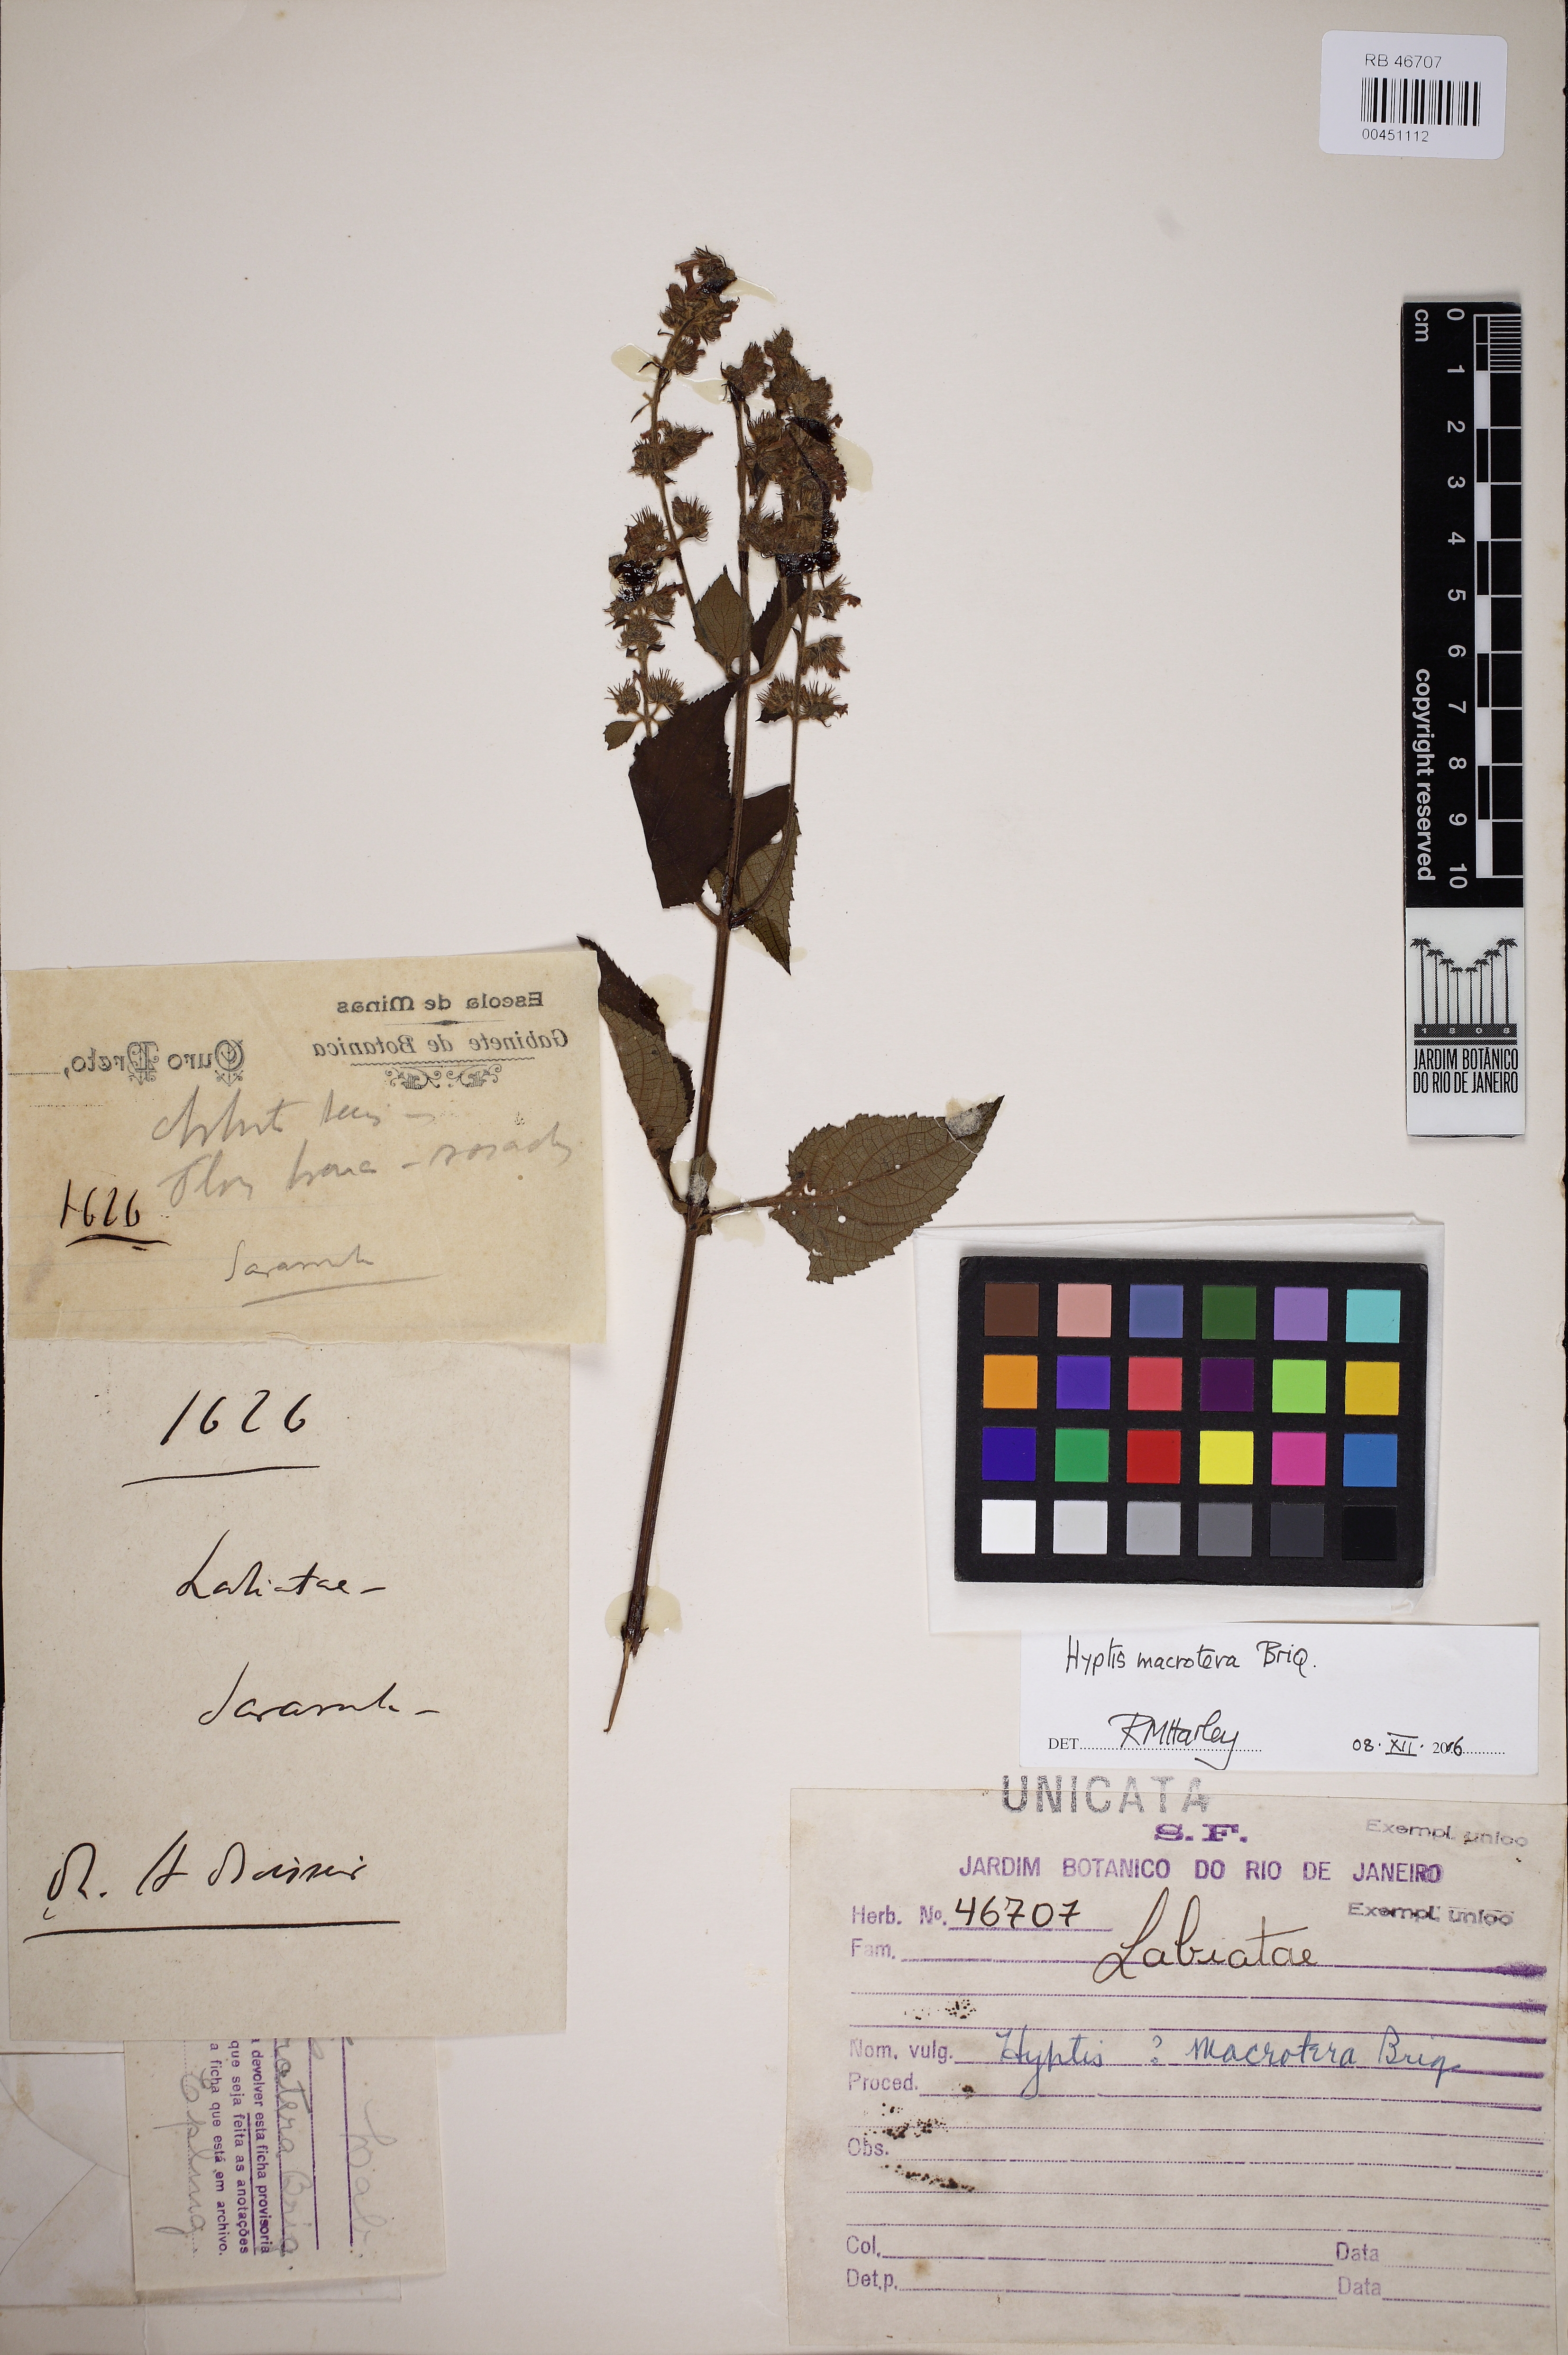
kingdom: Plantae
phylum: Tracheophyta
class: Magnoliopsida
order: Lamiales
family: Lamiaceae
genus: Cantinoa
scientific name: Cantinoa macrotera
